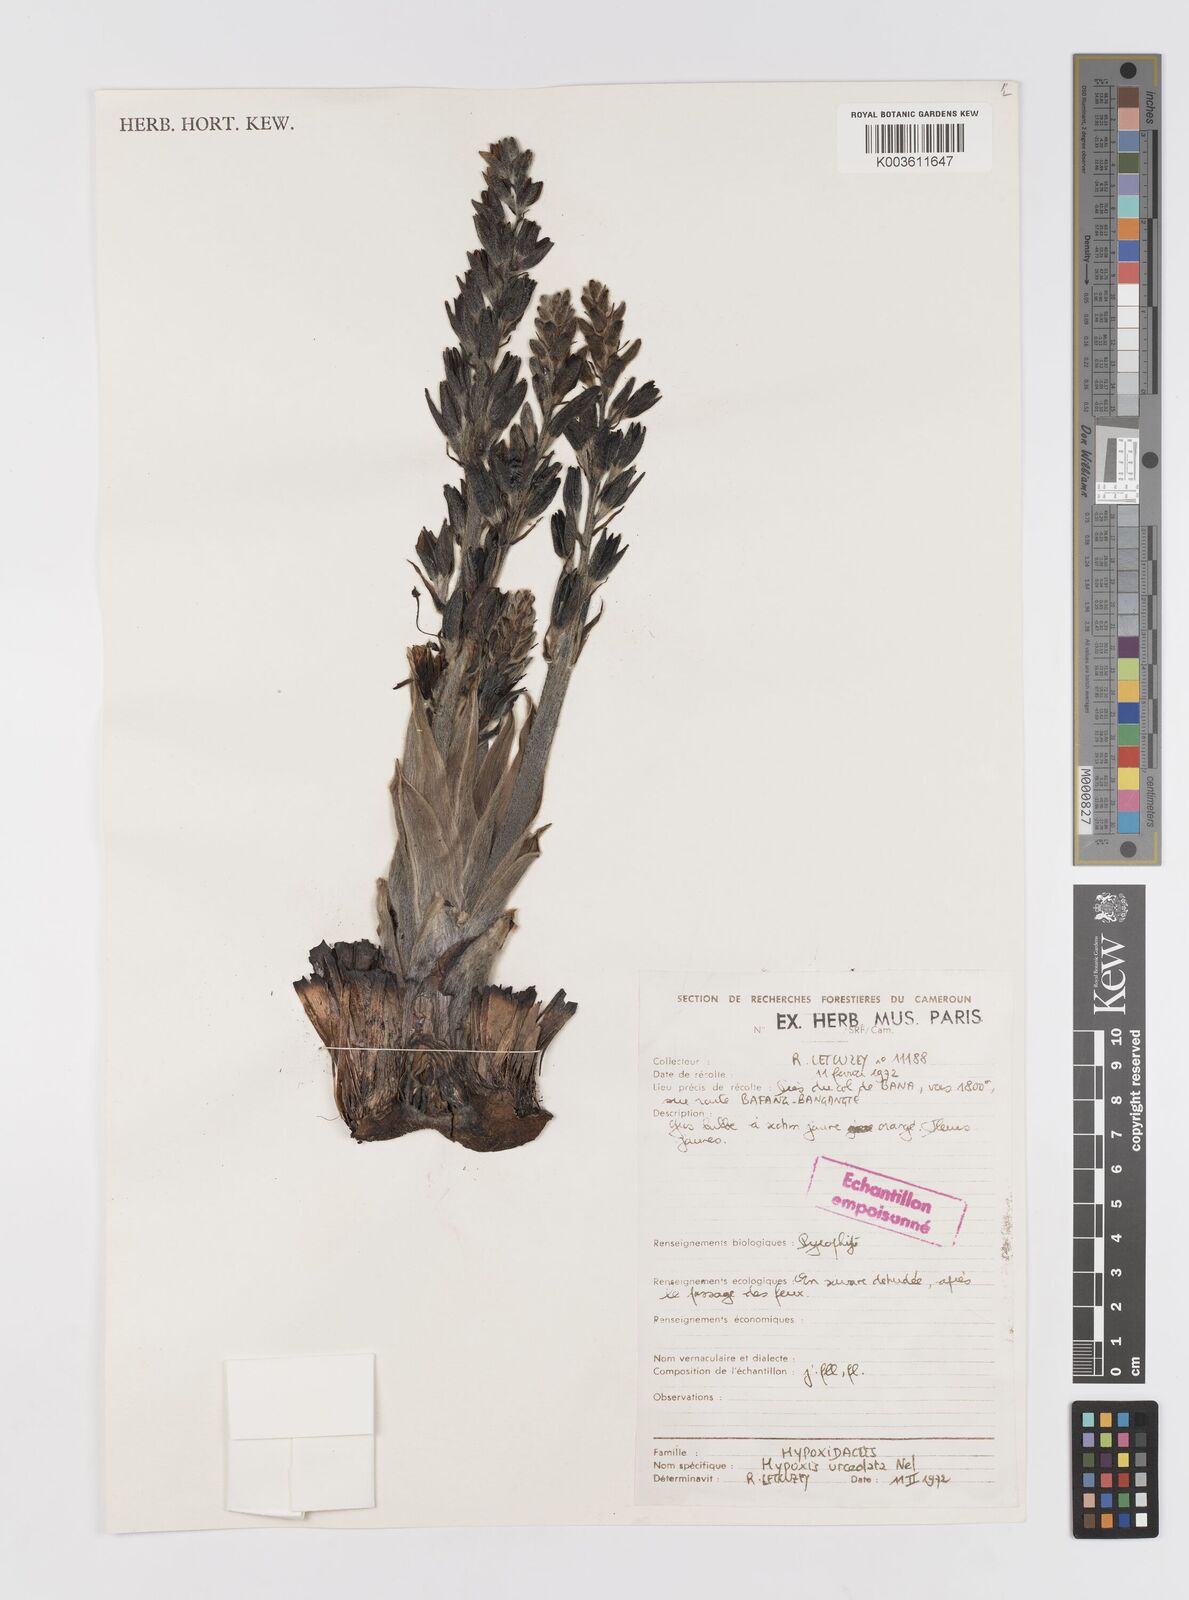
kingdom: Plantae
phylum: Tracheophyta
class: Liliopsida
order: Asparagales
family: Hypoxidaceae
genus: Hypoxis
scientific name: Hypoxis urceolata
